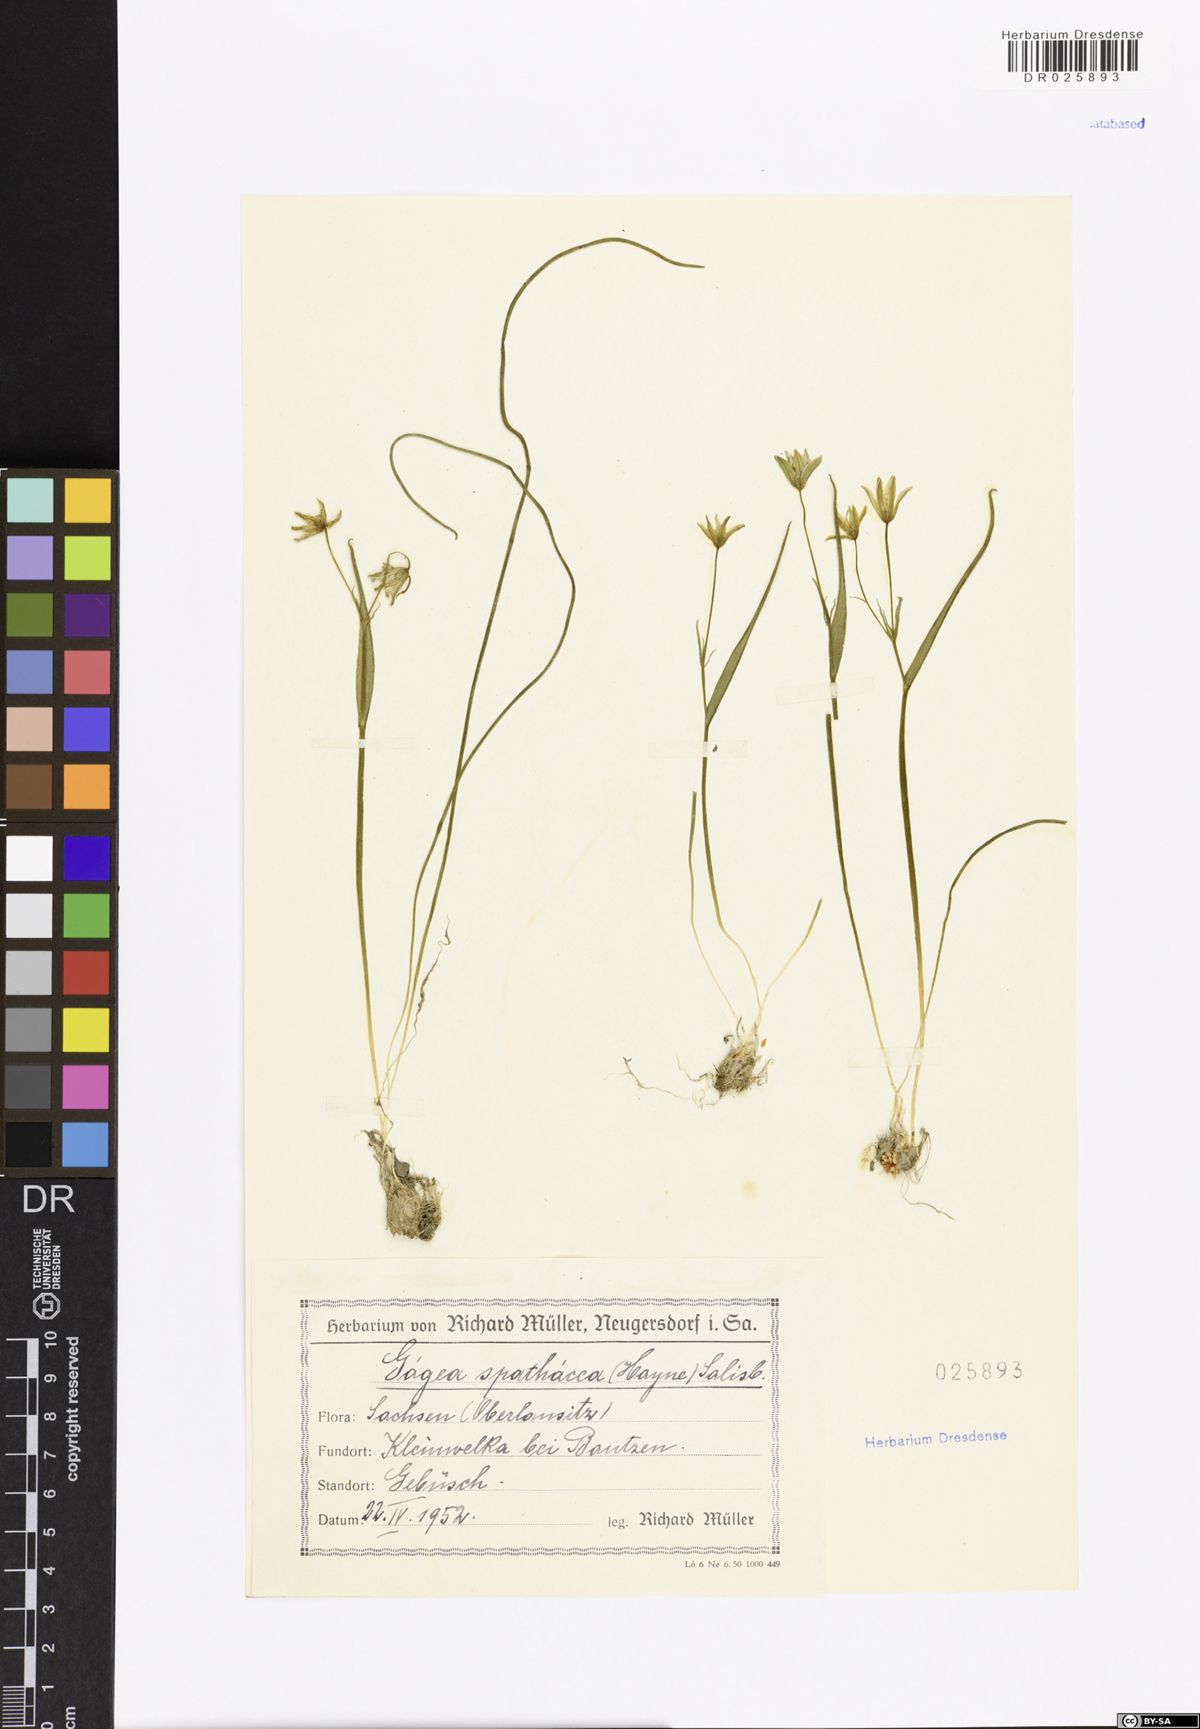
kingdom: Plantae
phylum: Tracheophyta
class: Liliopsida
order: Liliales
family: Liliaceae
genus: Gagea
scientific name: Gagea spathacea
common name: Belgian gagea
